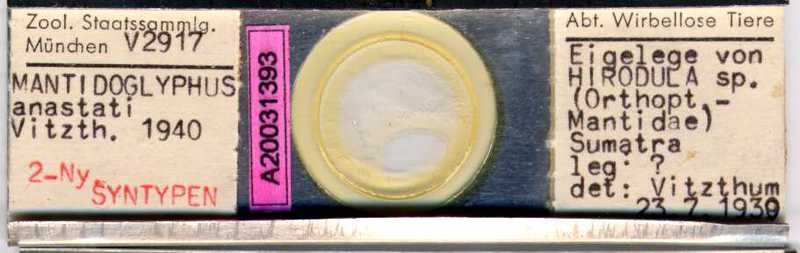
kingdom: Animalia
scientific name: Animalia
